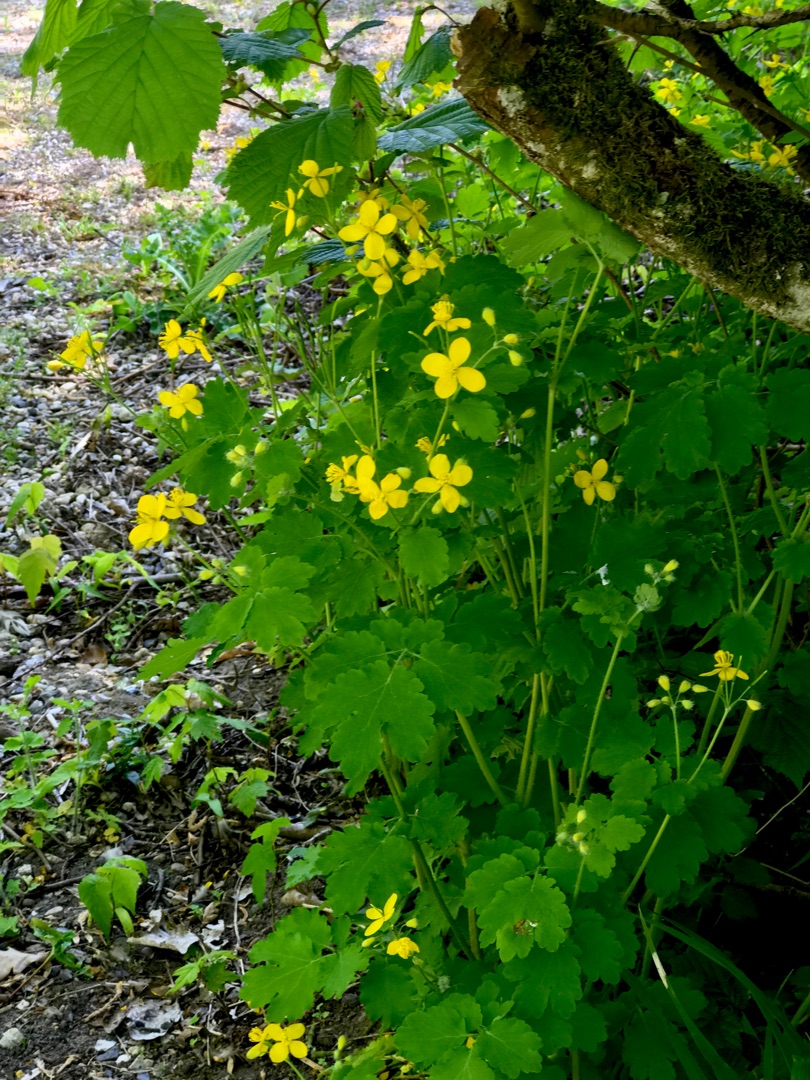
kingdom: Plantae
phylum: Tracheophyta
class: Magnoliopsida
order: Ranunculales
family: Papaveraceae
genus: Chelidonium
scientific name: Chelidonium majus
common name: Svaleurt
